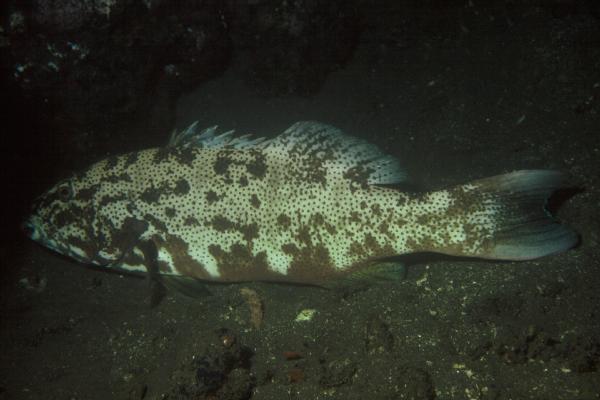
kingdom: Animalia
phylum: Chordata
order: Perciformes
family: Serranidae
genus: Plectropomus
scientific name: Plectropomus leopardus
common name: Coral trout
